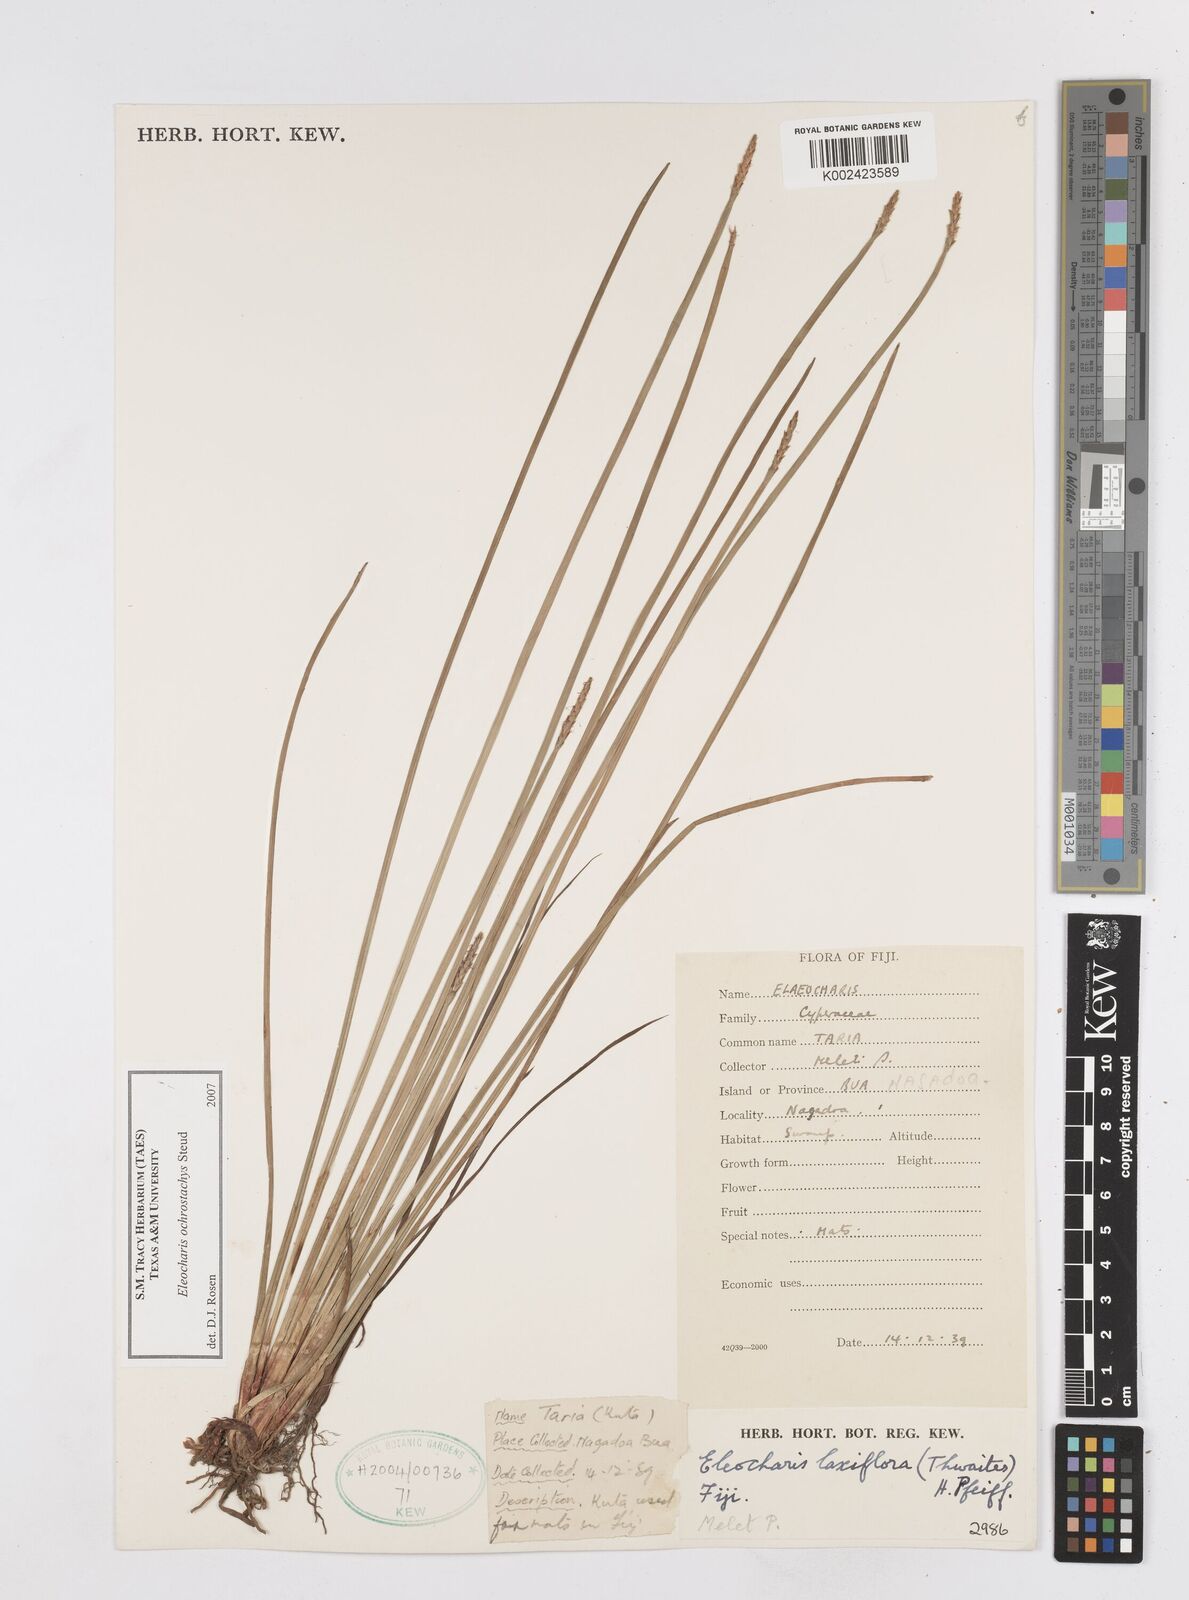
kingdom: Plantae
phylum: Tracheophyta
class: Liliopsida
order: Poales
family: Cyperaceae
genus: Eleocharis
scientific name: Eleocharis ochrostachys
